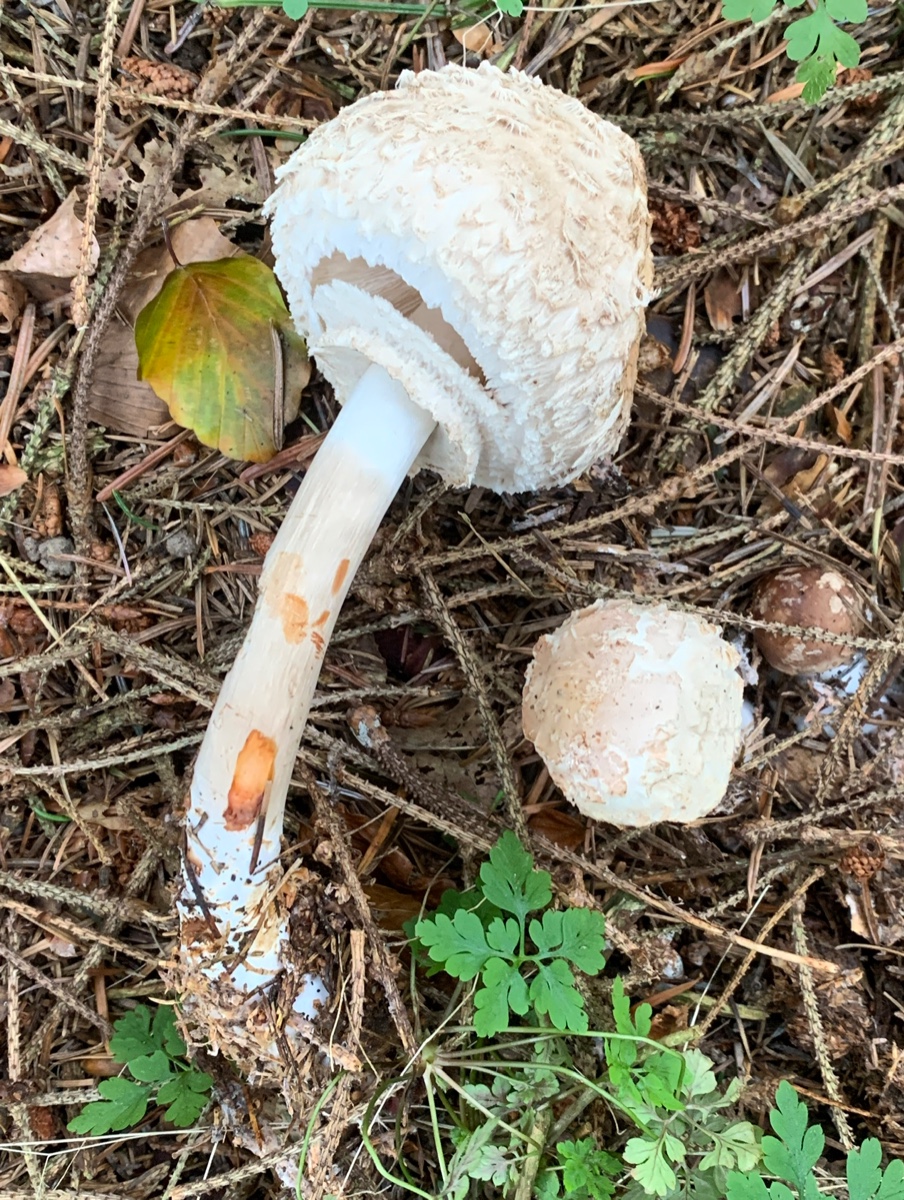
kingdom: Fungi
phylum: Basidiomycota
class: Agaricomycetes
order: Agaricales
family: Agaricaceae
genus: Chlorophyllum
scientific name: Chlorophyllum olivieri
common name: almindelig rabarberhat
